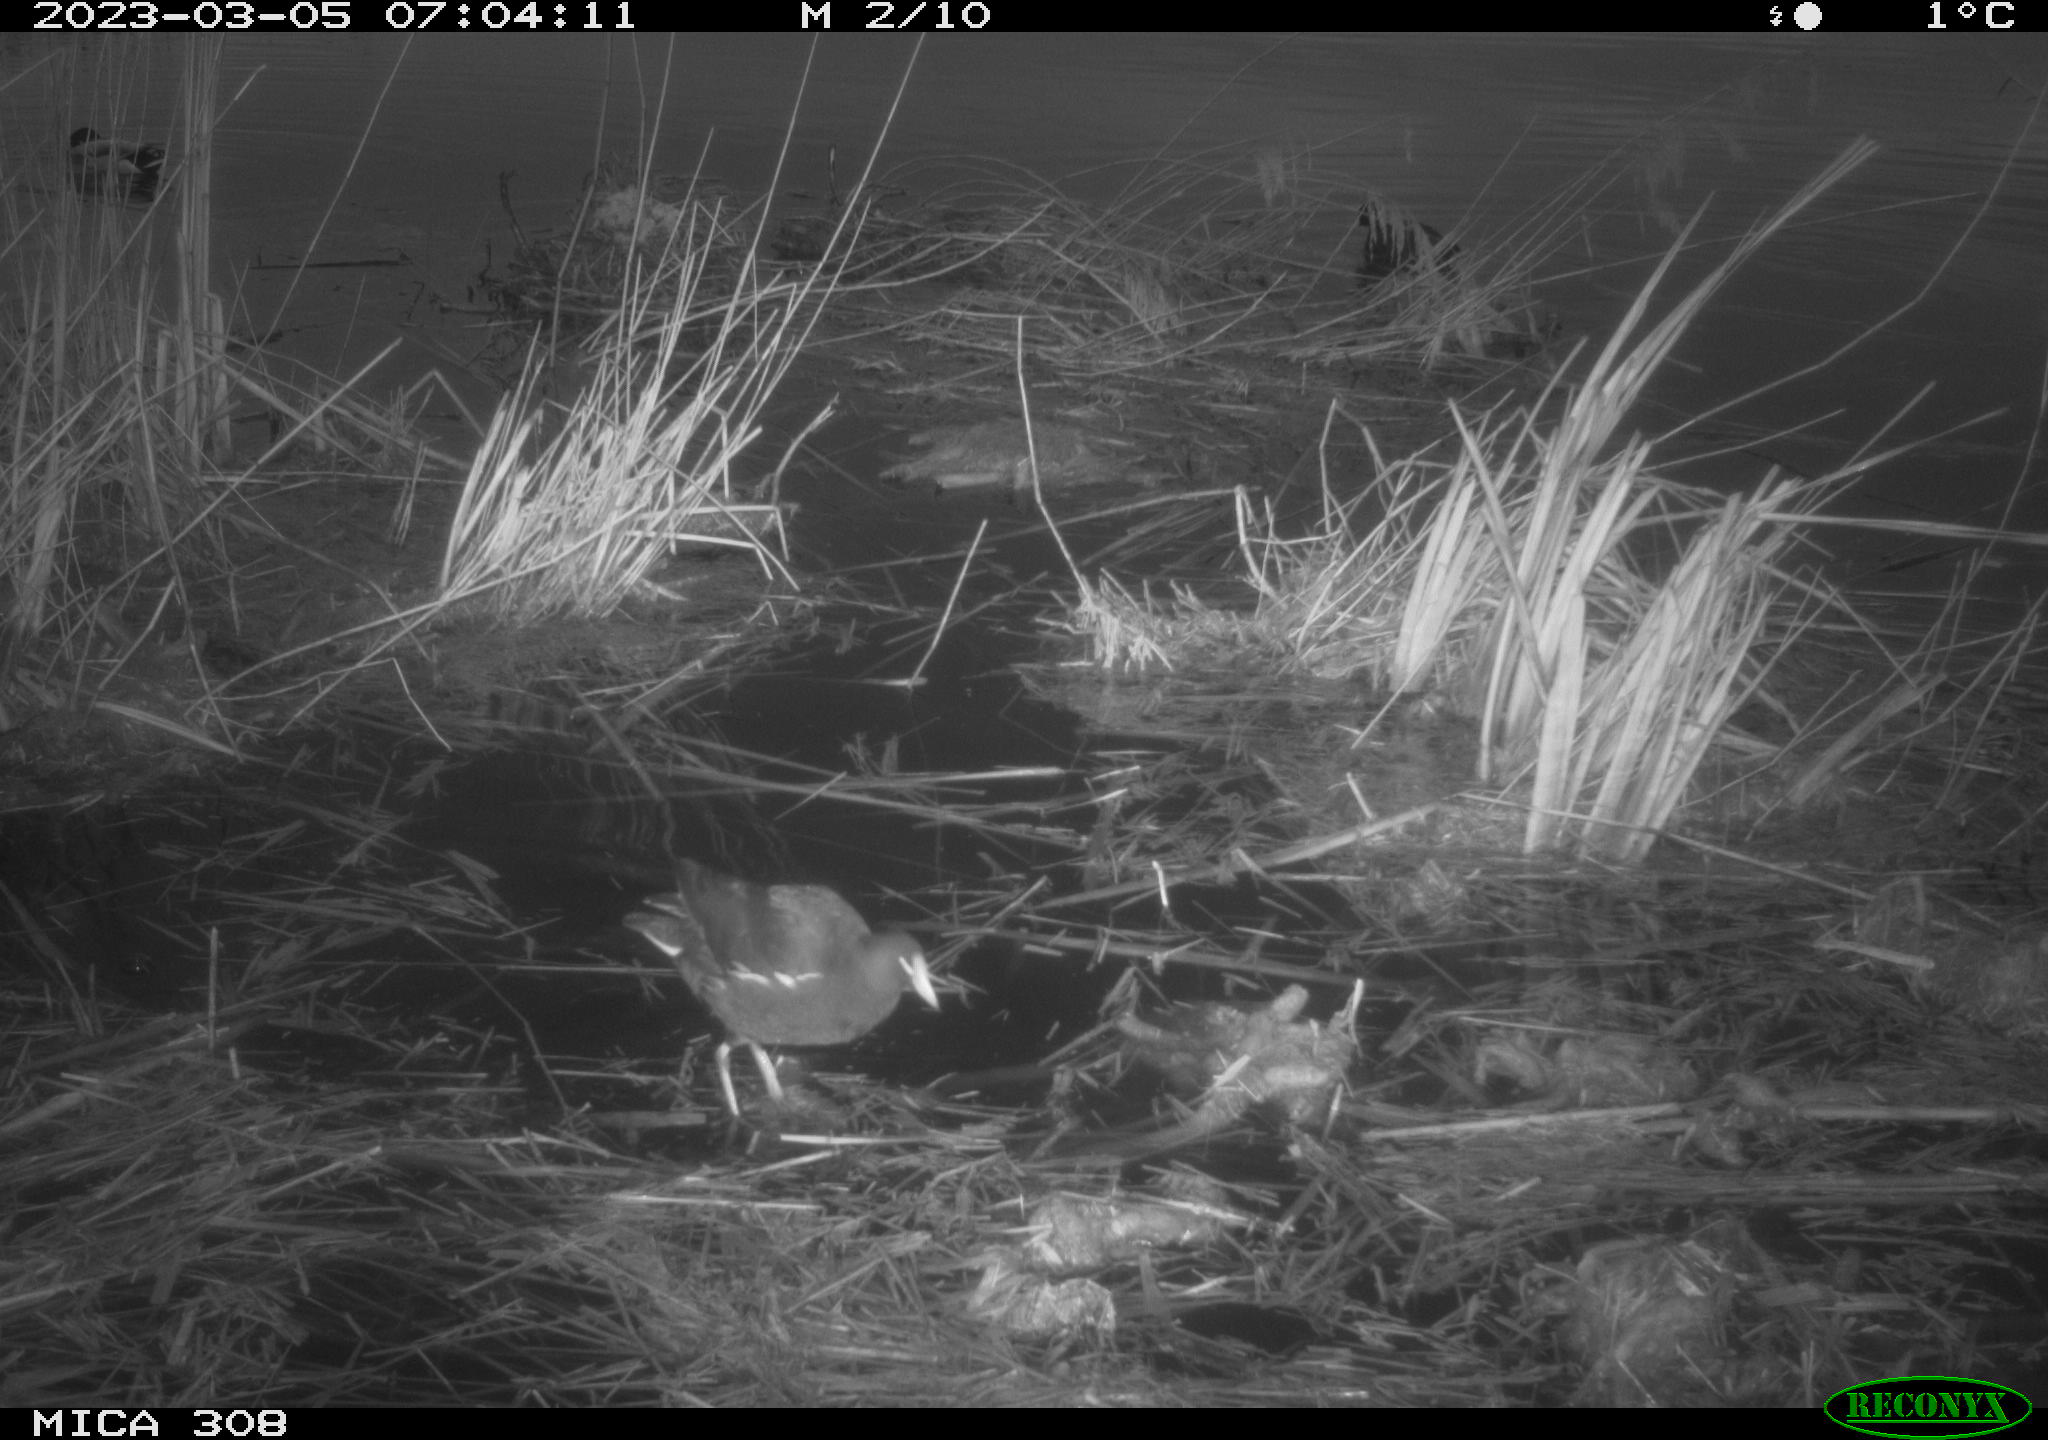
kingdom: Animalia
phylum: Chordata
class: Aves
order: Gruiformes
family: Rallidae
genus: Gallinula
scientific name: Gallinula chloropus
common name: Common moorhen
